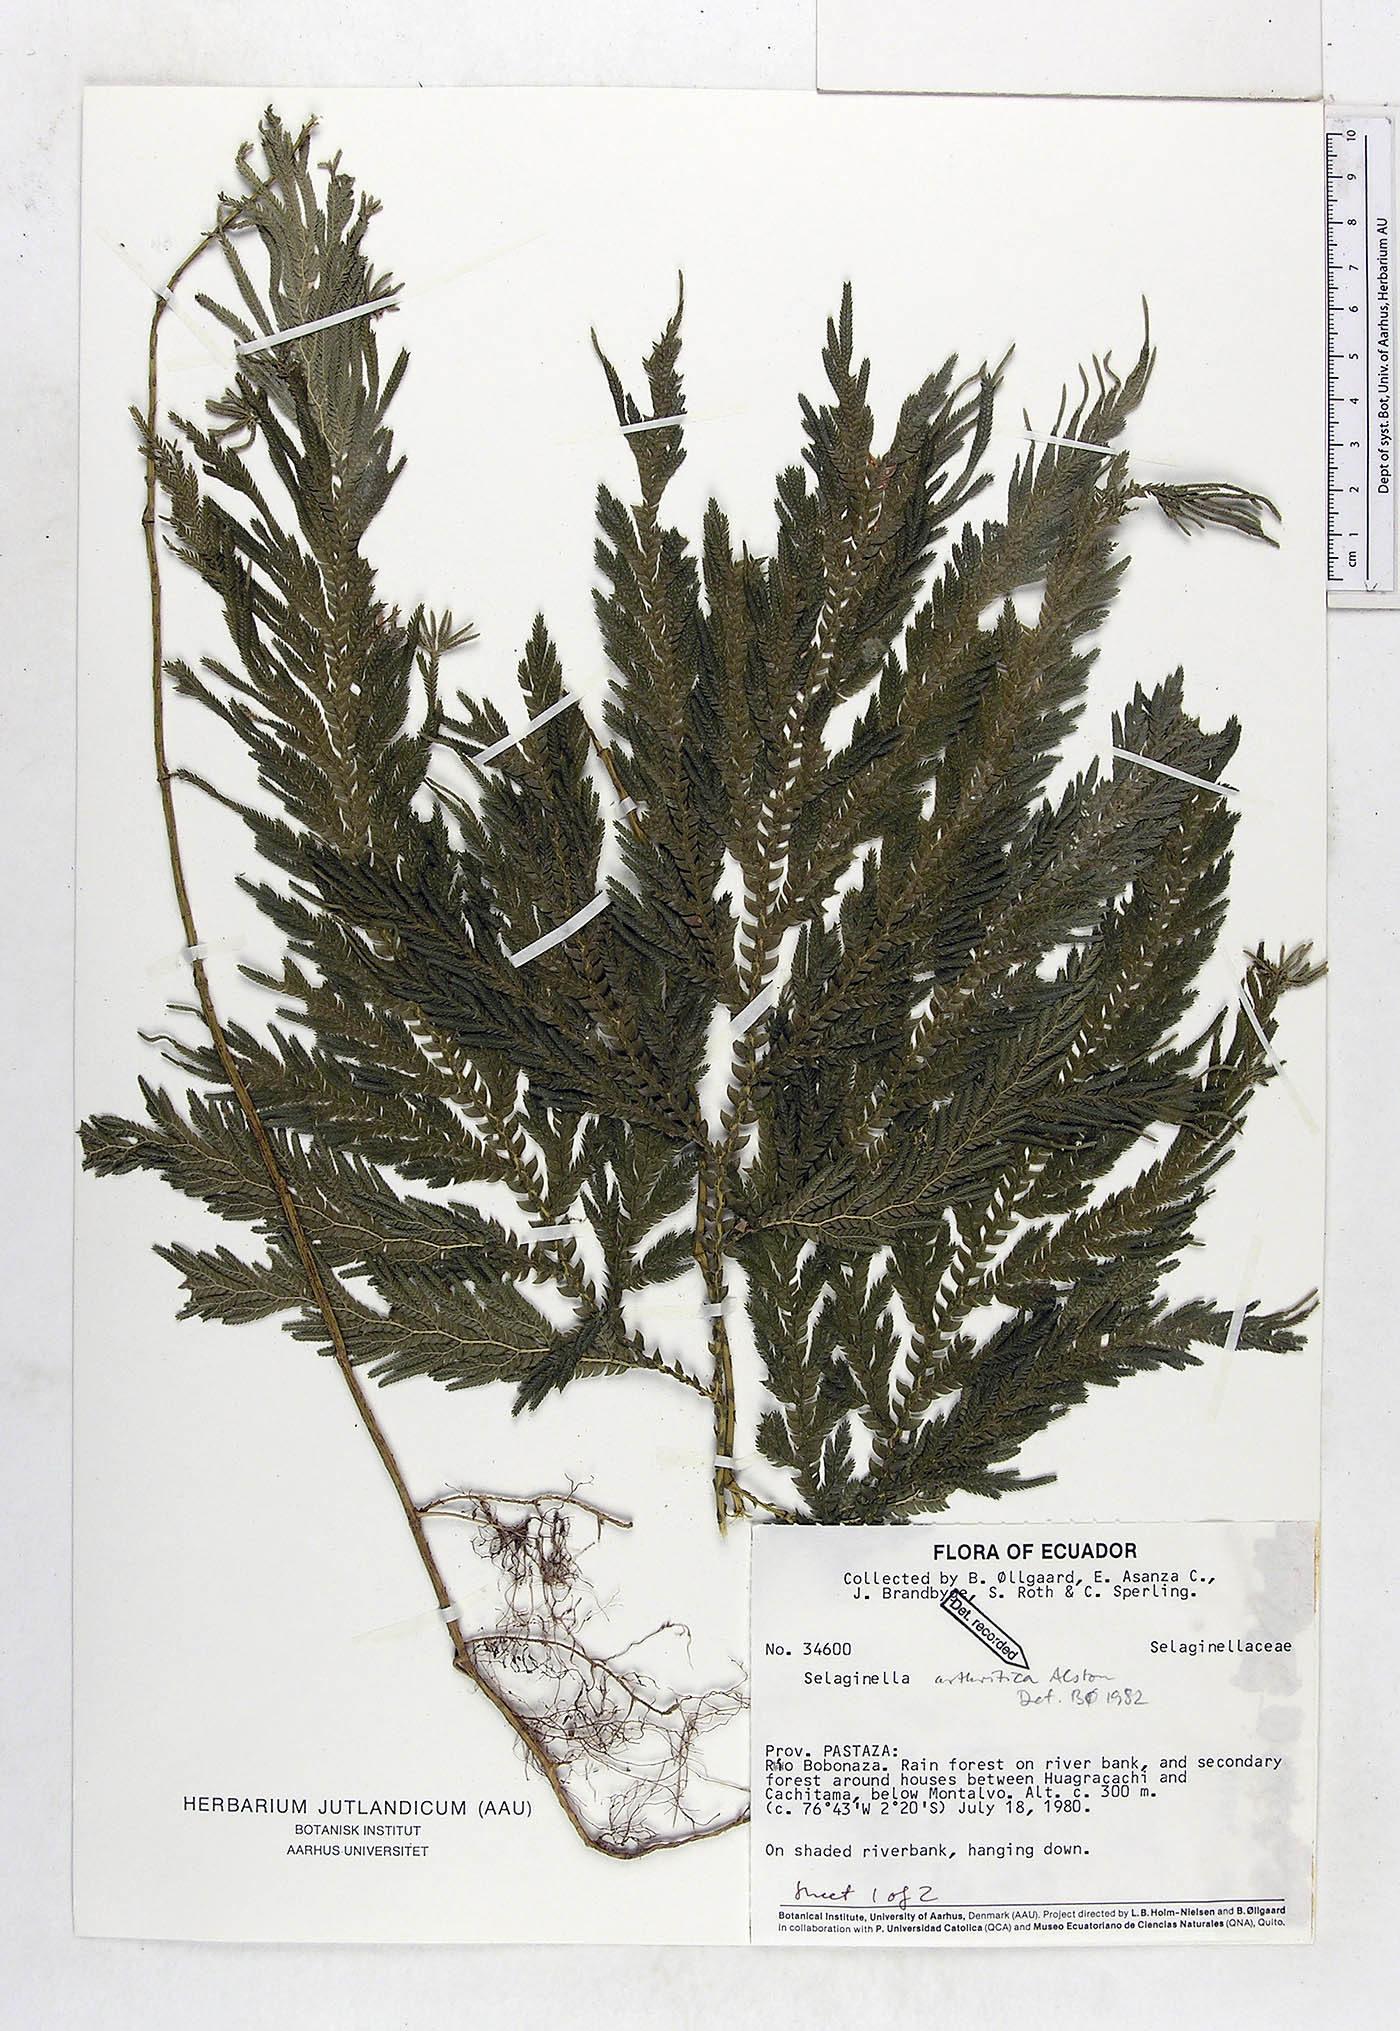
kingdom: Plantae
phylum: Tracheophyta
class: Lycopodiopsida
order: Selaginellales
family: Selaginellaceae
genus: Selaginella
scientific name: Selaginella arthritica
